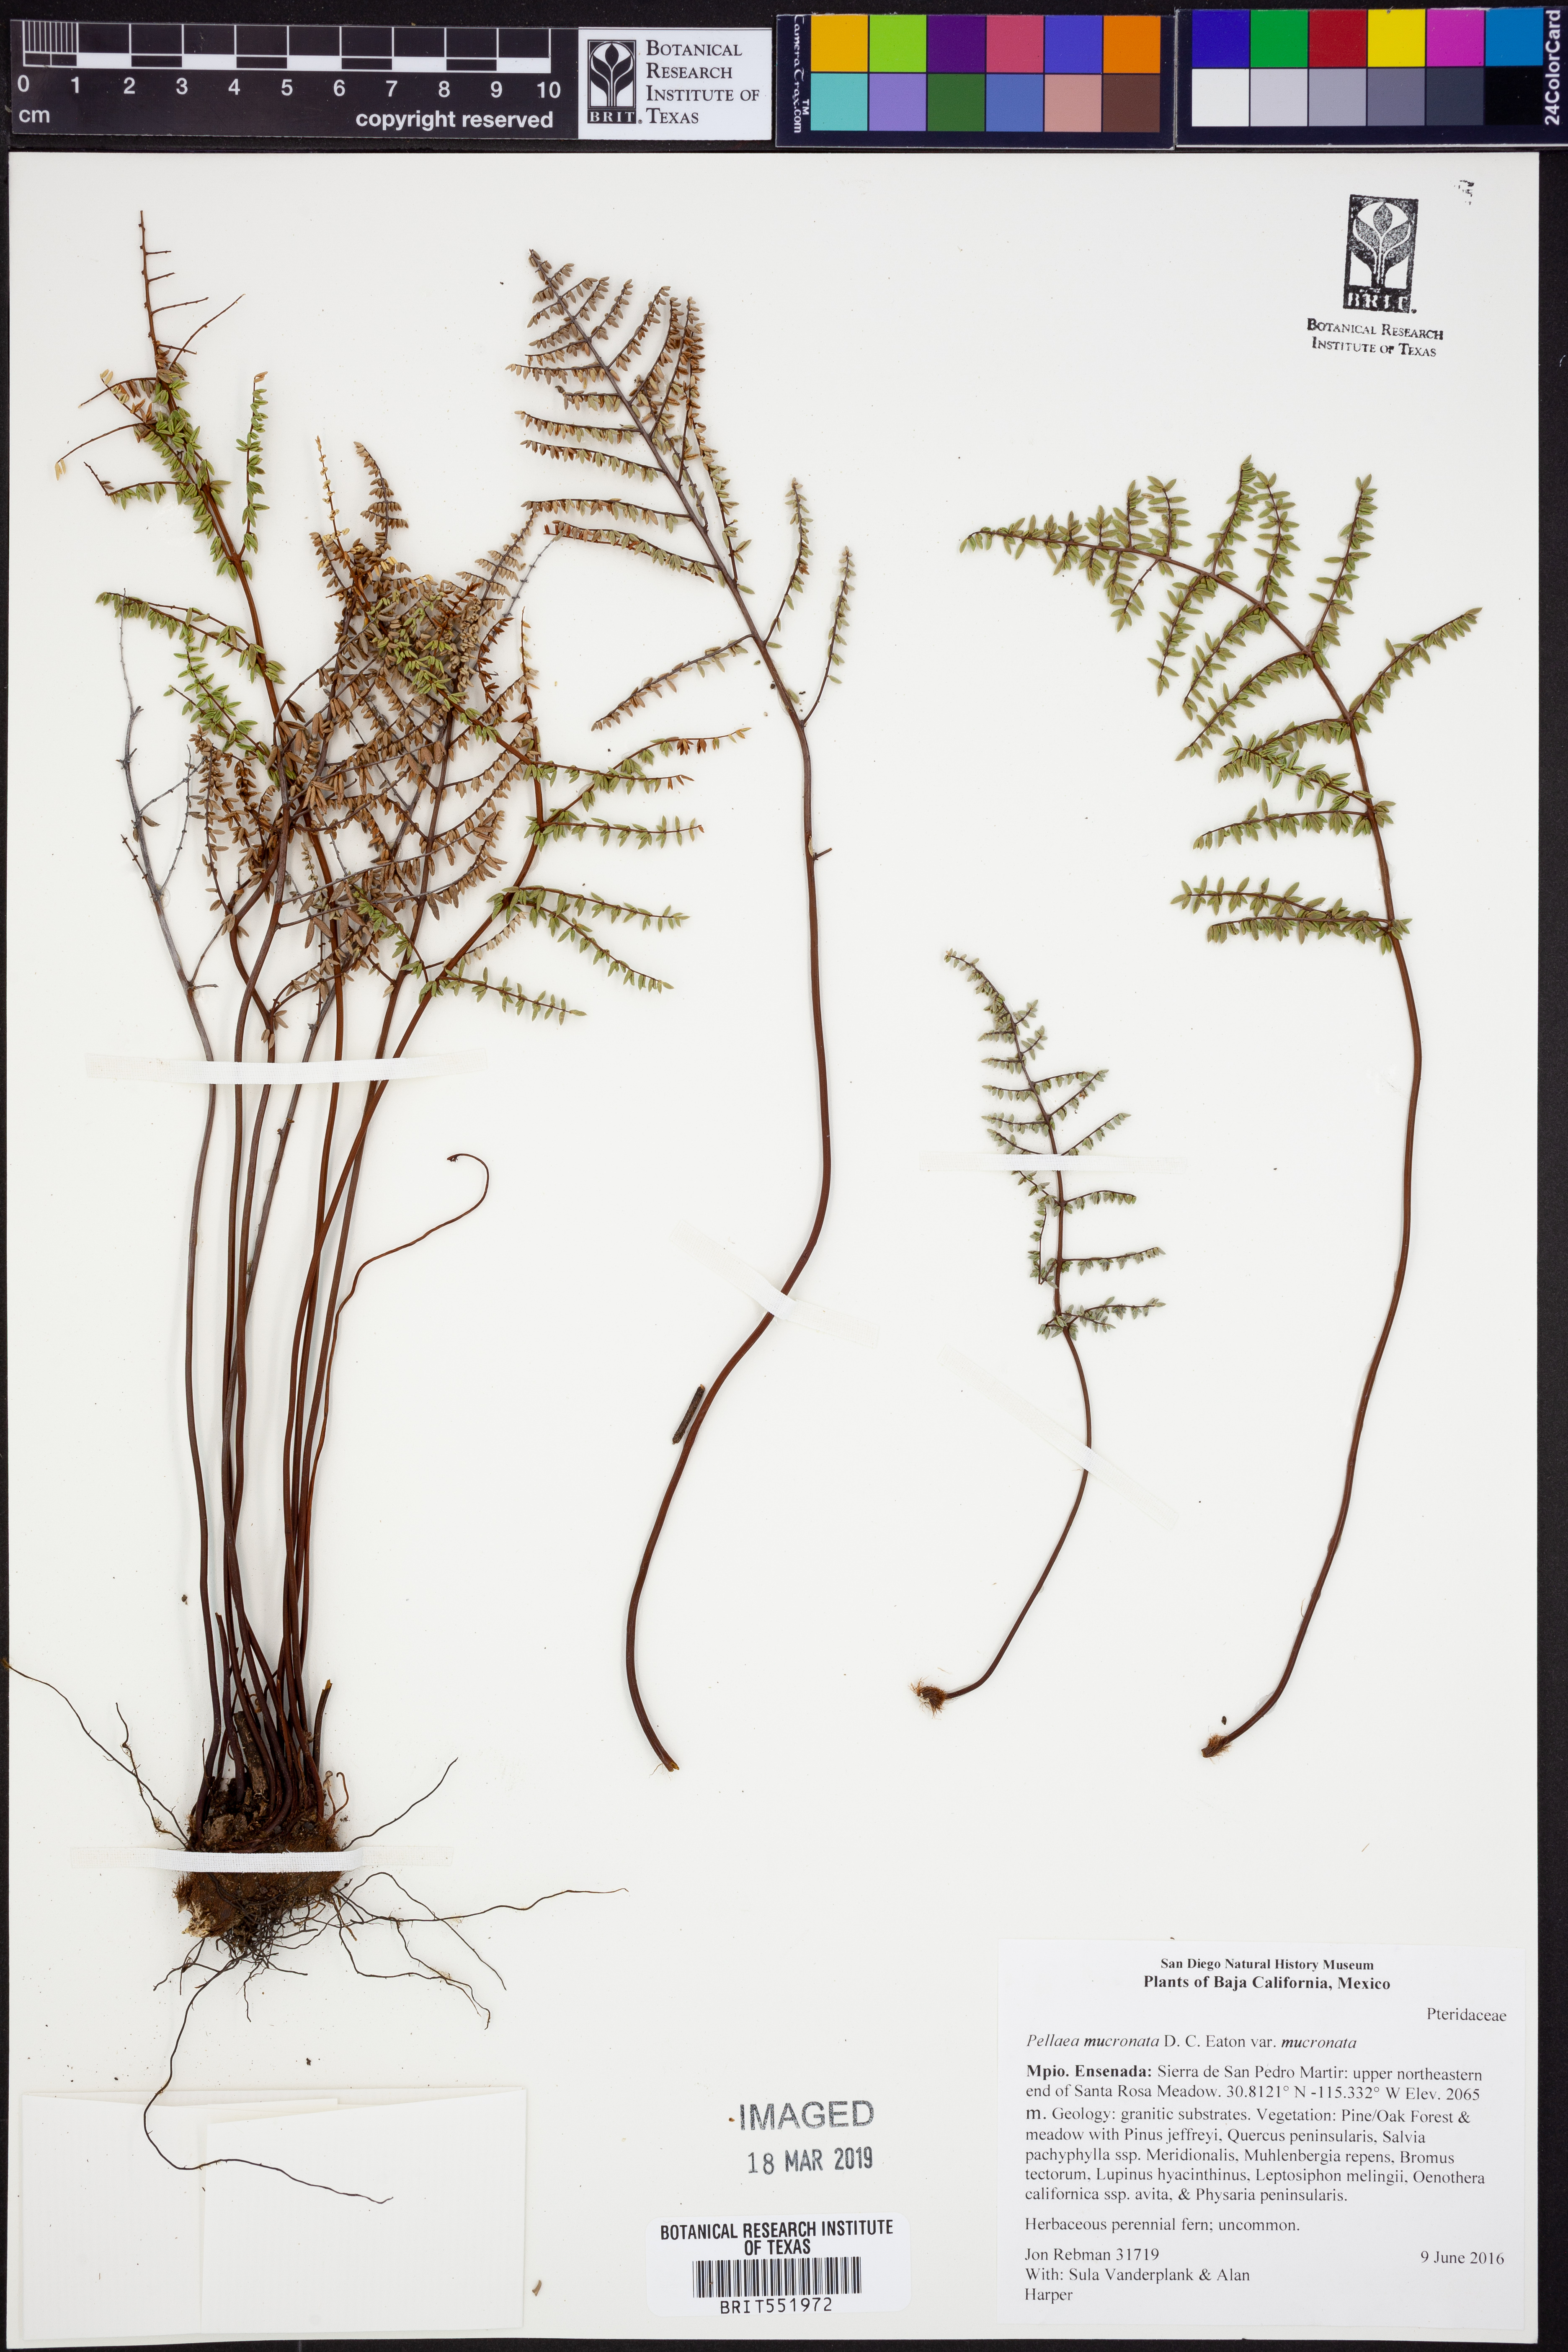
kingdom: Plantae
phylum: Tracheophyta
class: Polypodiopsida
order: Polypodiales
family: Pteridaceae
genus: Pellaea
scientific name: Pellaea atropurpurea
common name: Hairy cliffbrake
